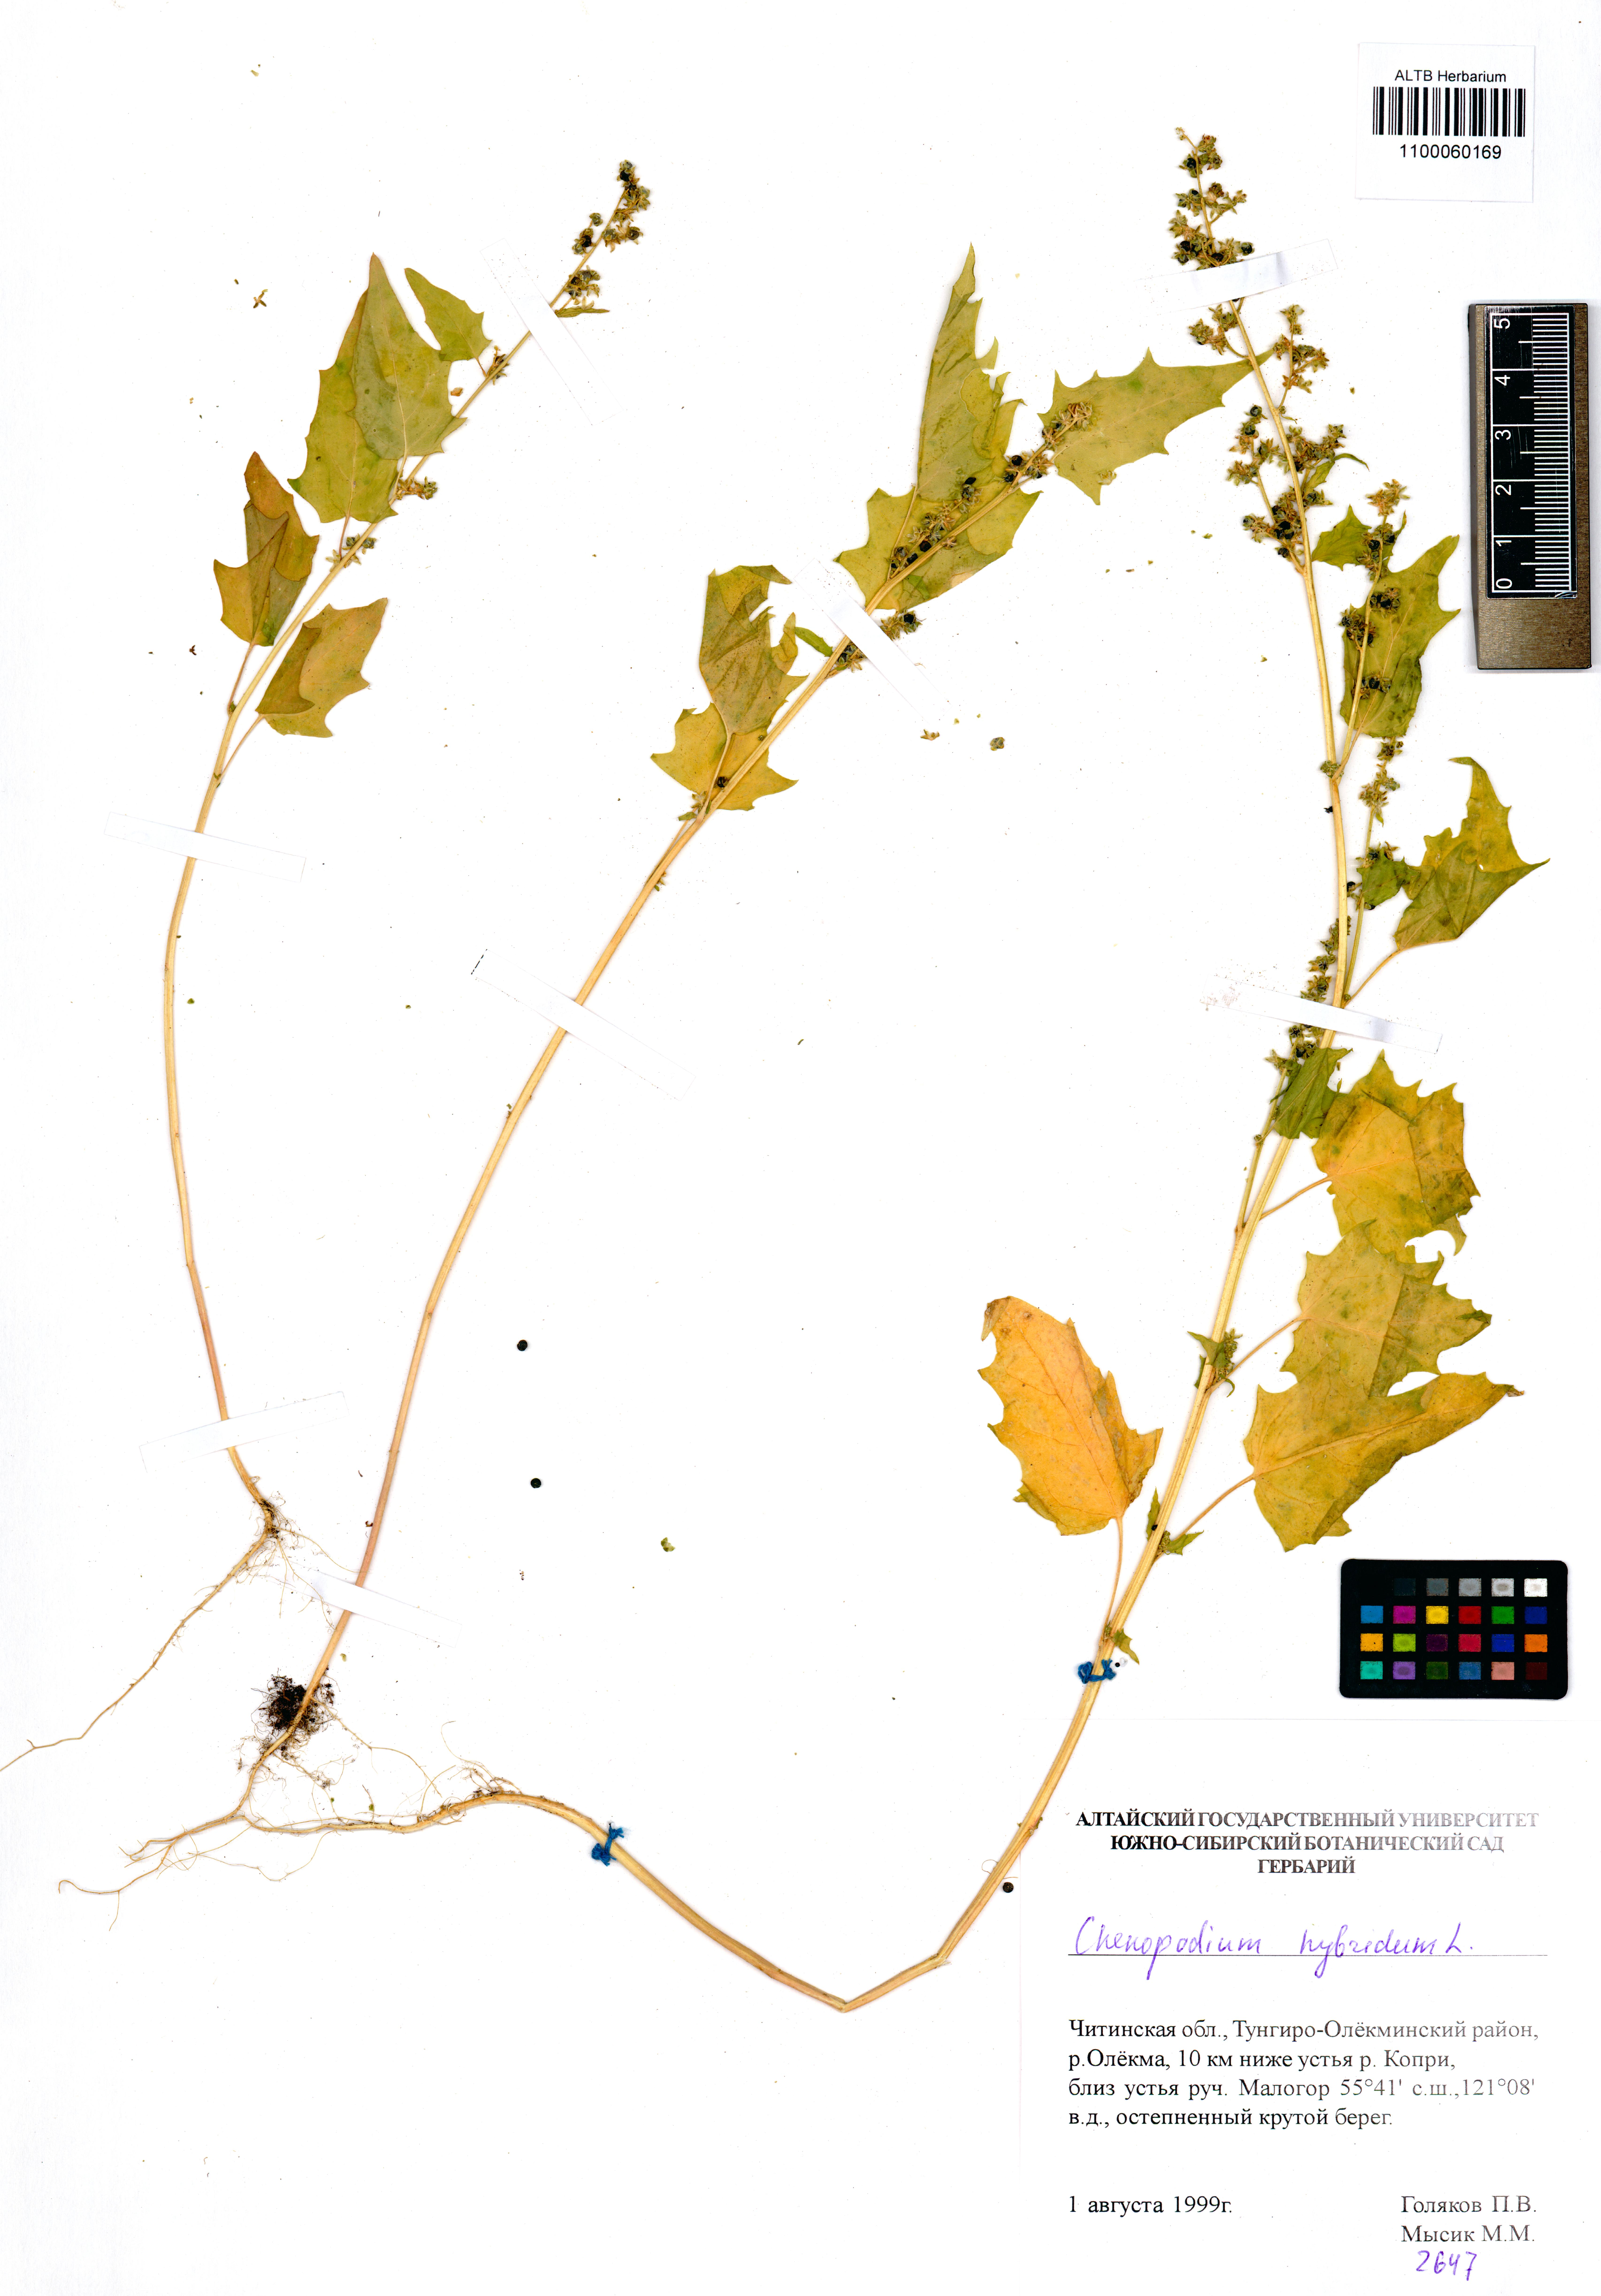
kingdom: Plantae
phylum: Tracheophyta
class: Magnoliopsida
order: Caryophyllales
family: Amaranthaceae
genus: Chenopodiastrum
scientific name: Chenopodiastrum hybridum
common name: Mapleleaf goosefoot
